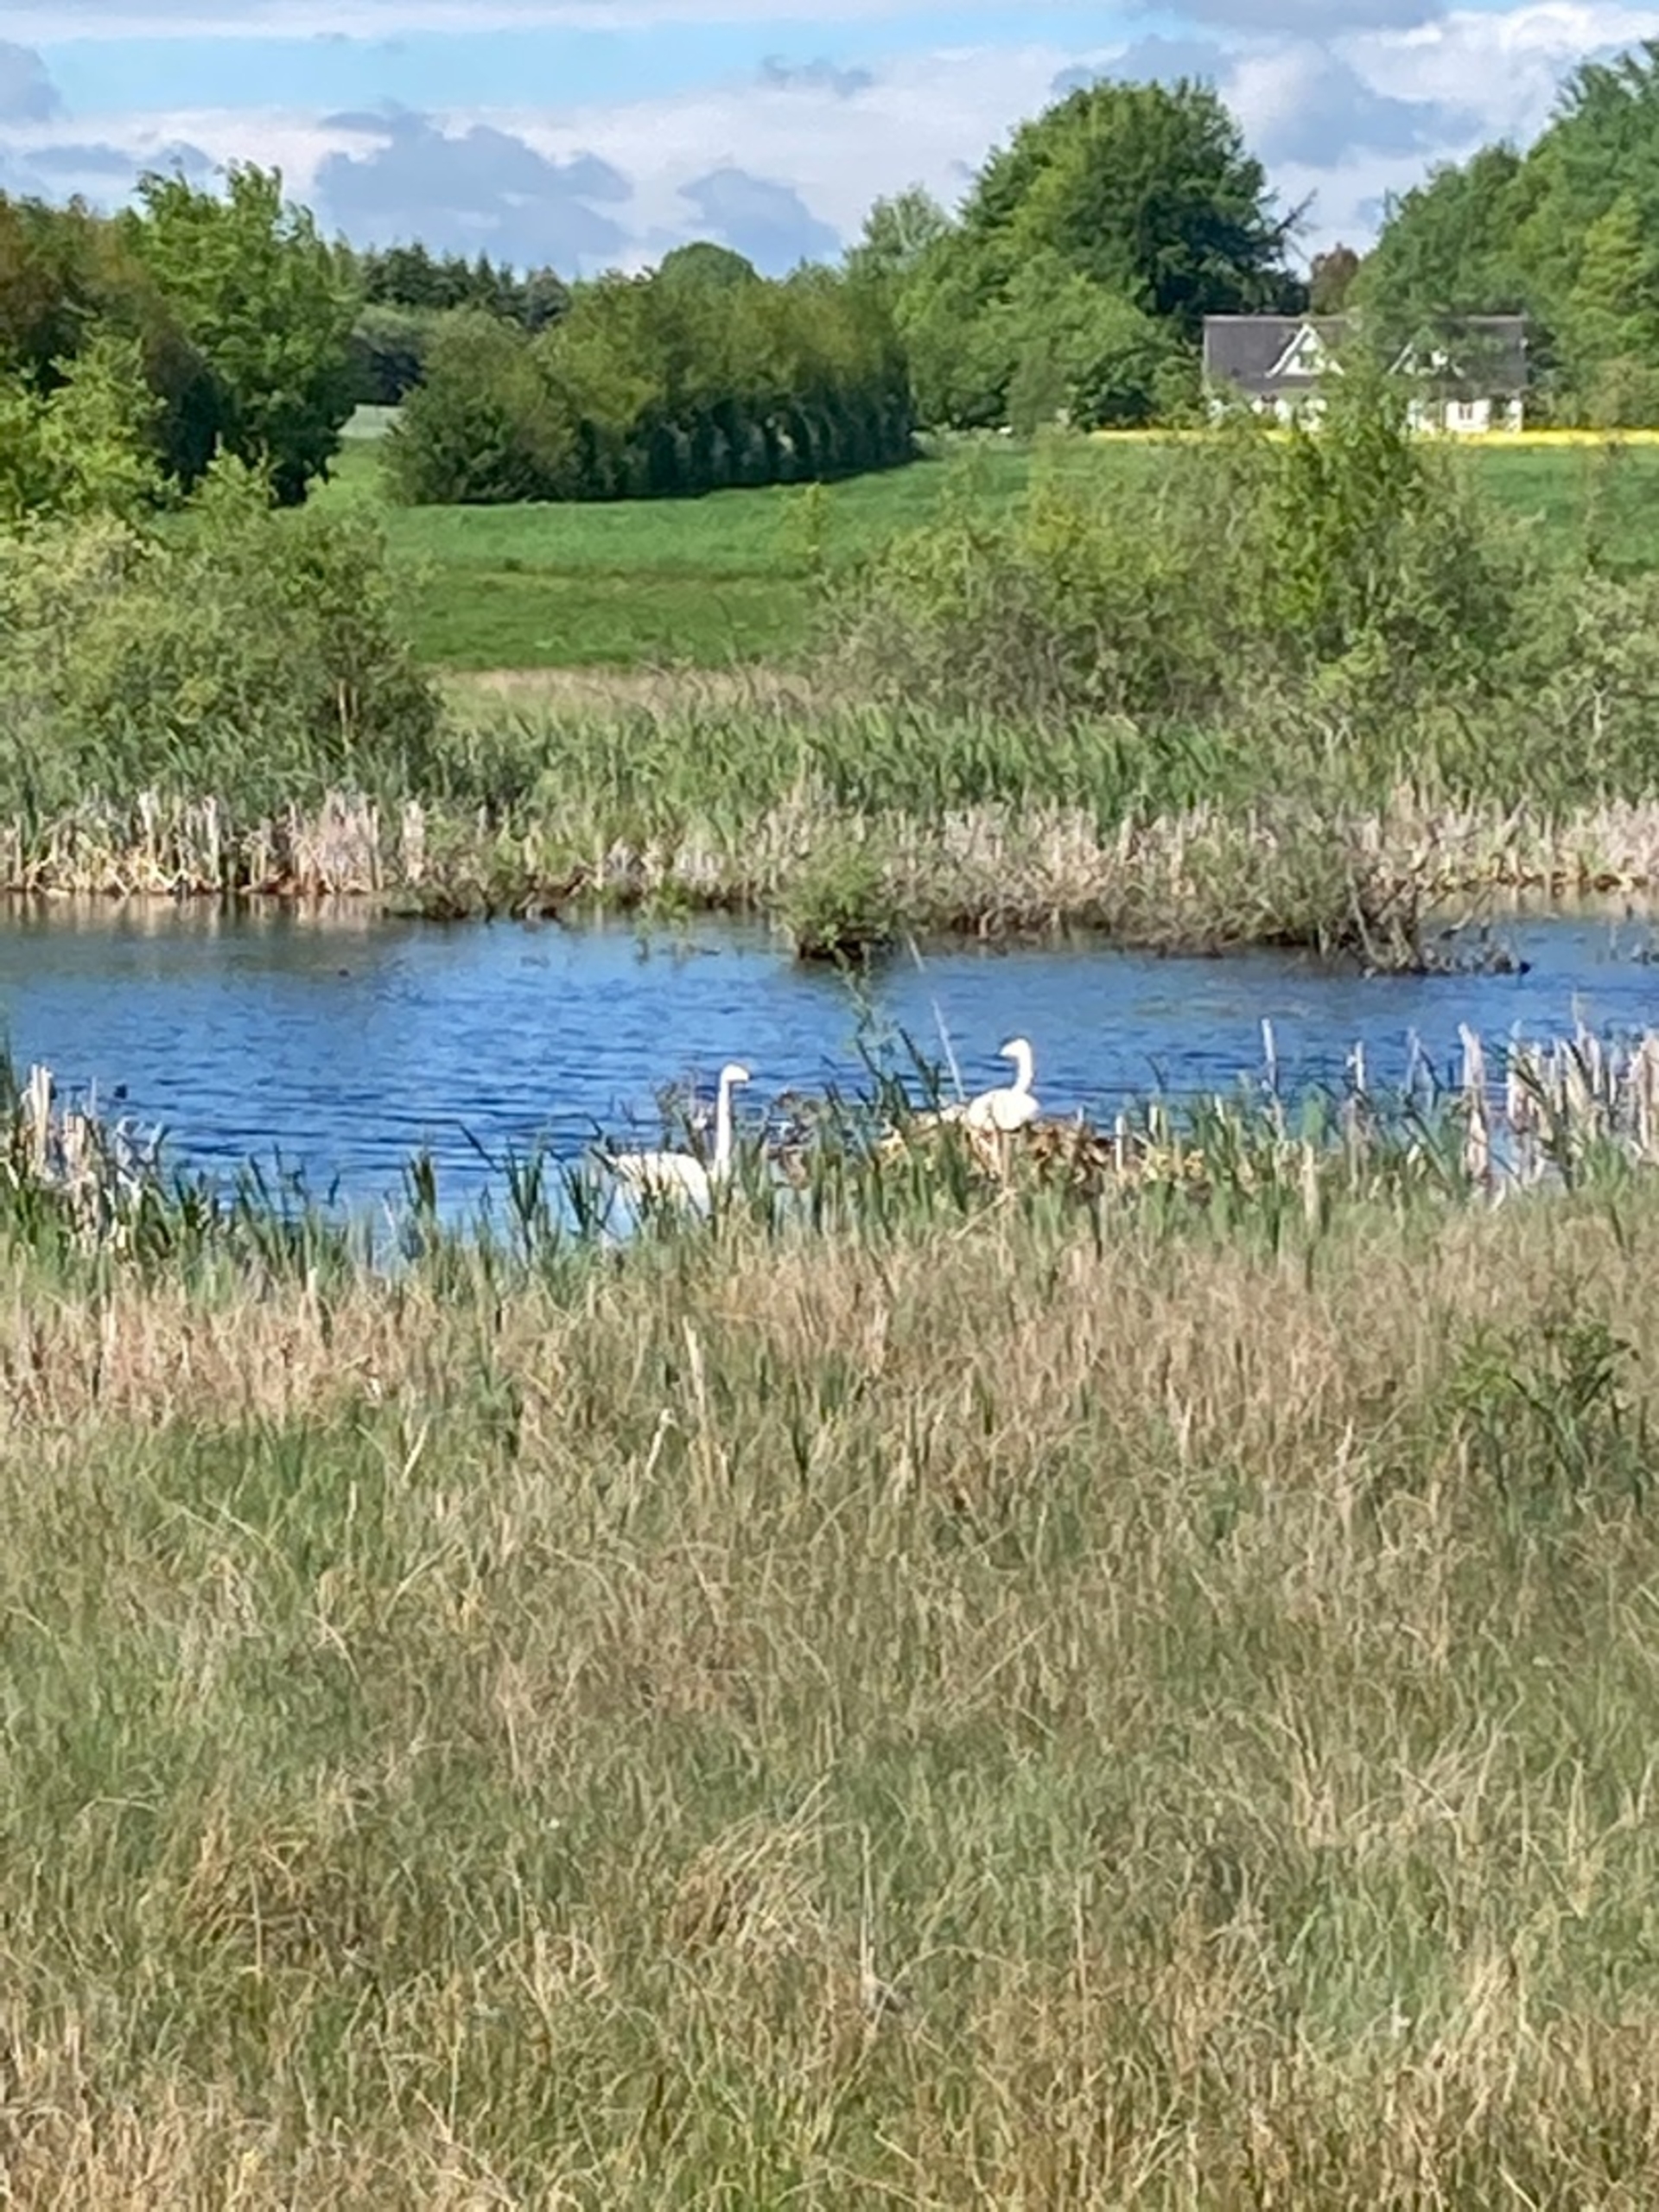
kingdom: Animalia
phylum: Chordata
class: Aves
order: Anseriformes
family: Anatidae
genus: Cygnus
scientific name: Cygnus cygnus
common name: Sangsvane
